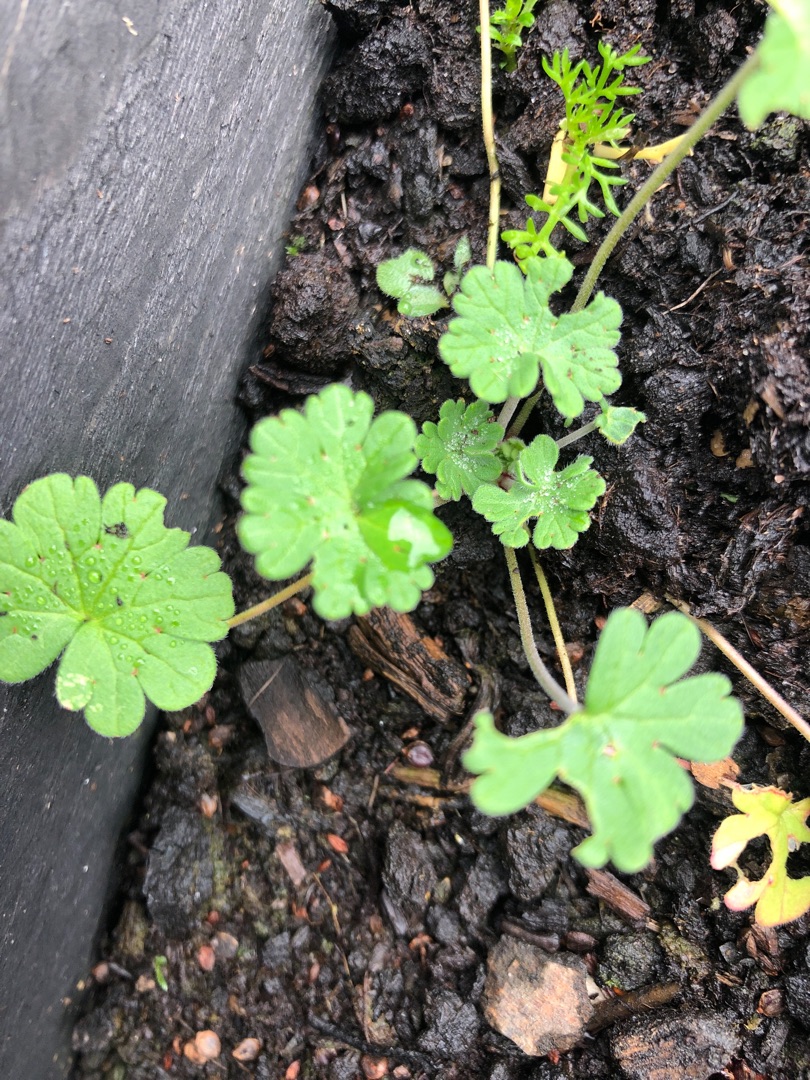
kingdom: Plantae
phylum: Tracheophyta
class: Magnoliopsida
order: Geraniales
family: Geraniaceae
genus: Geranium
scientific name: Geranium
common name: Storkenæbslægten
